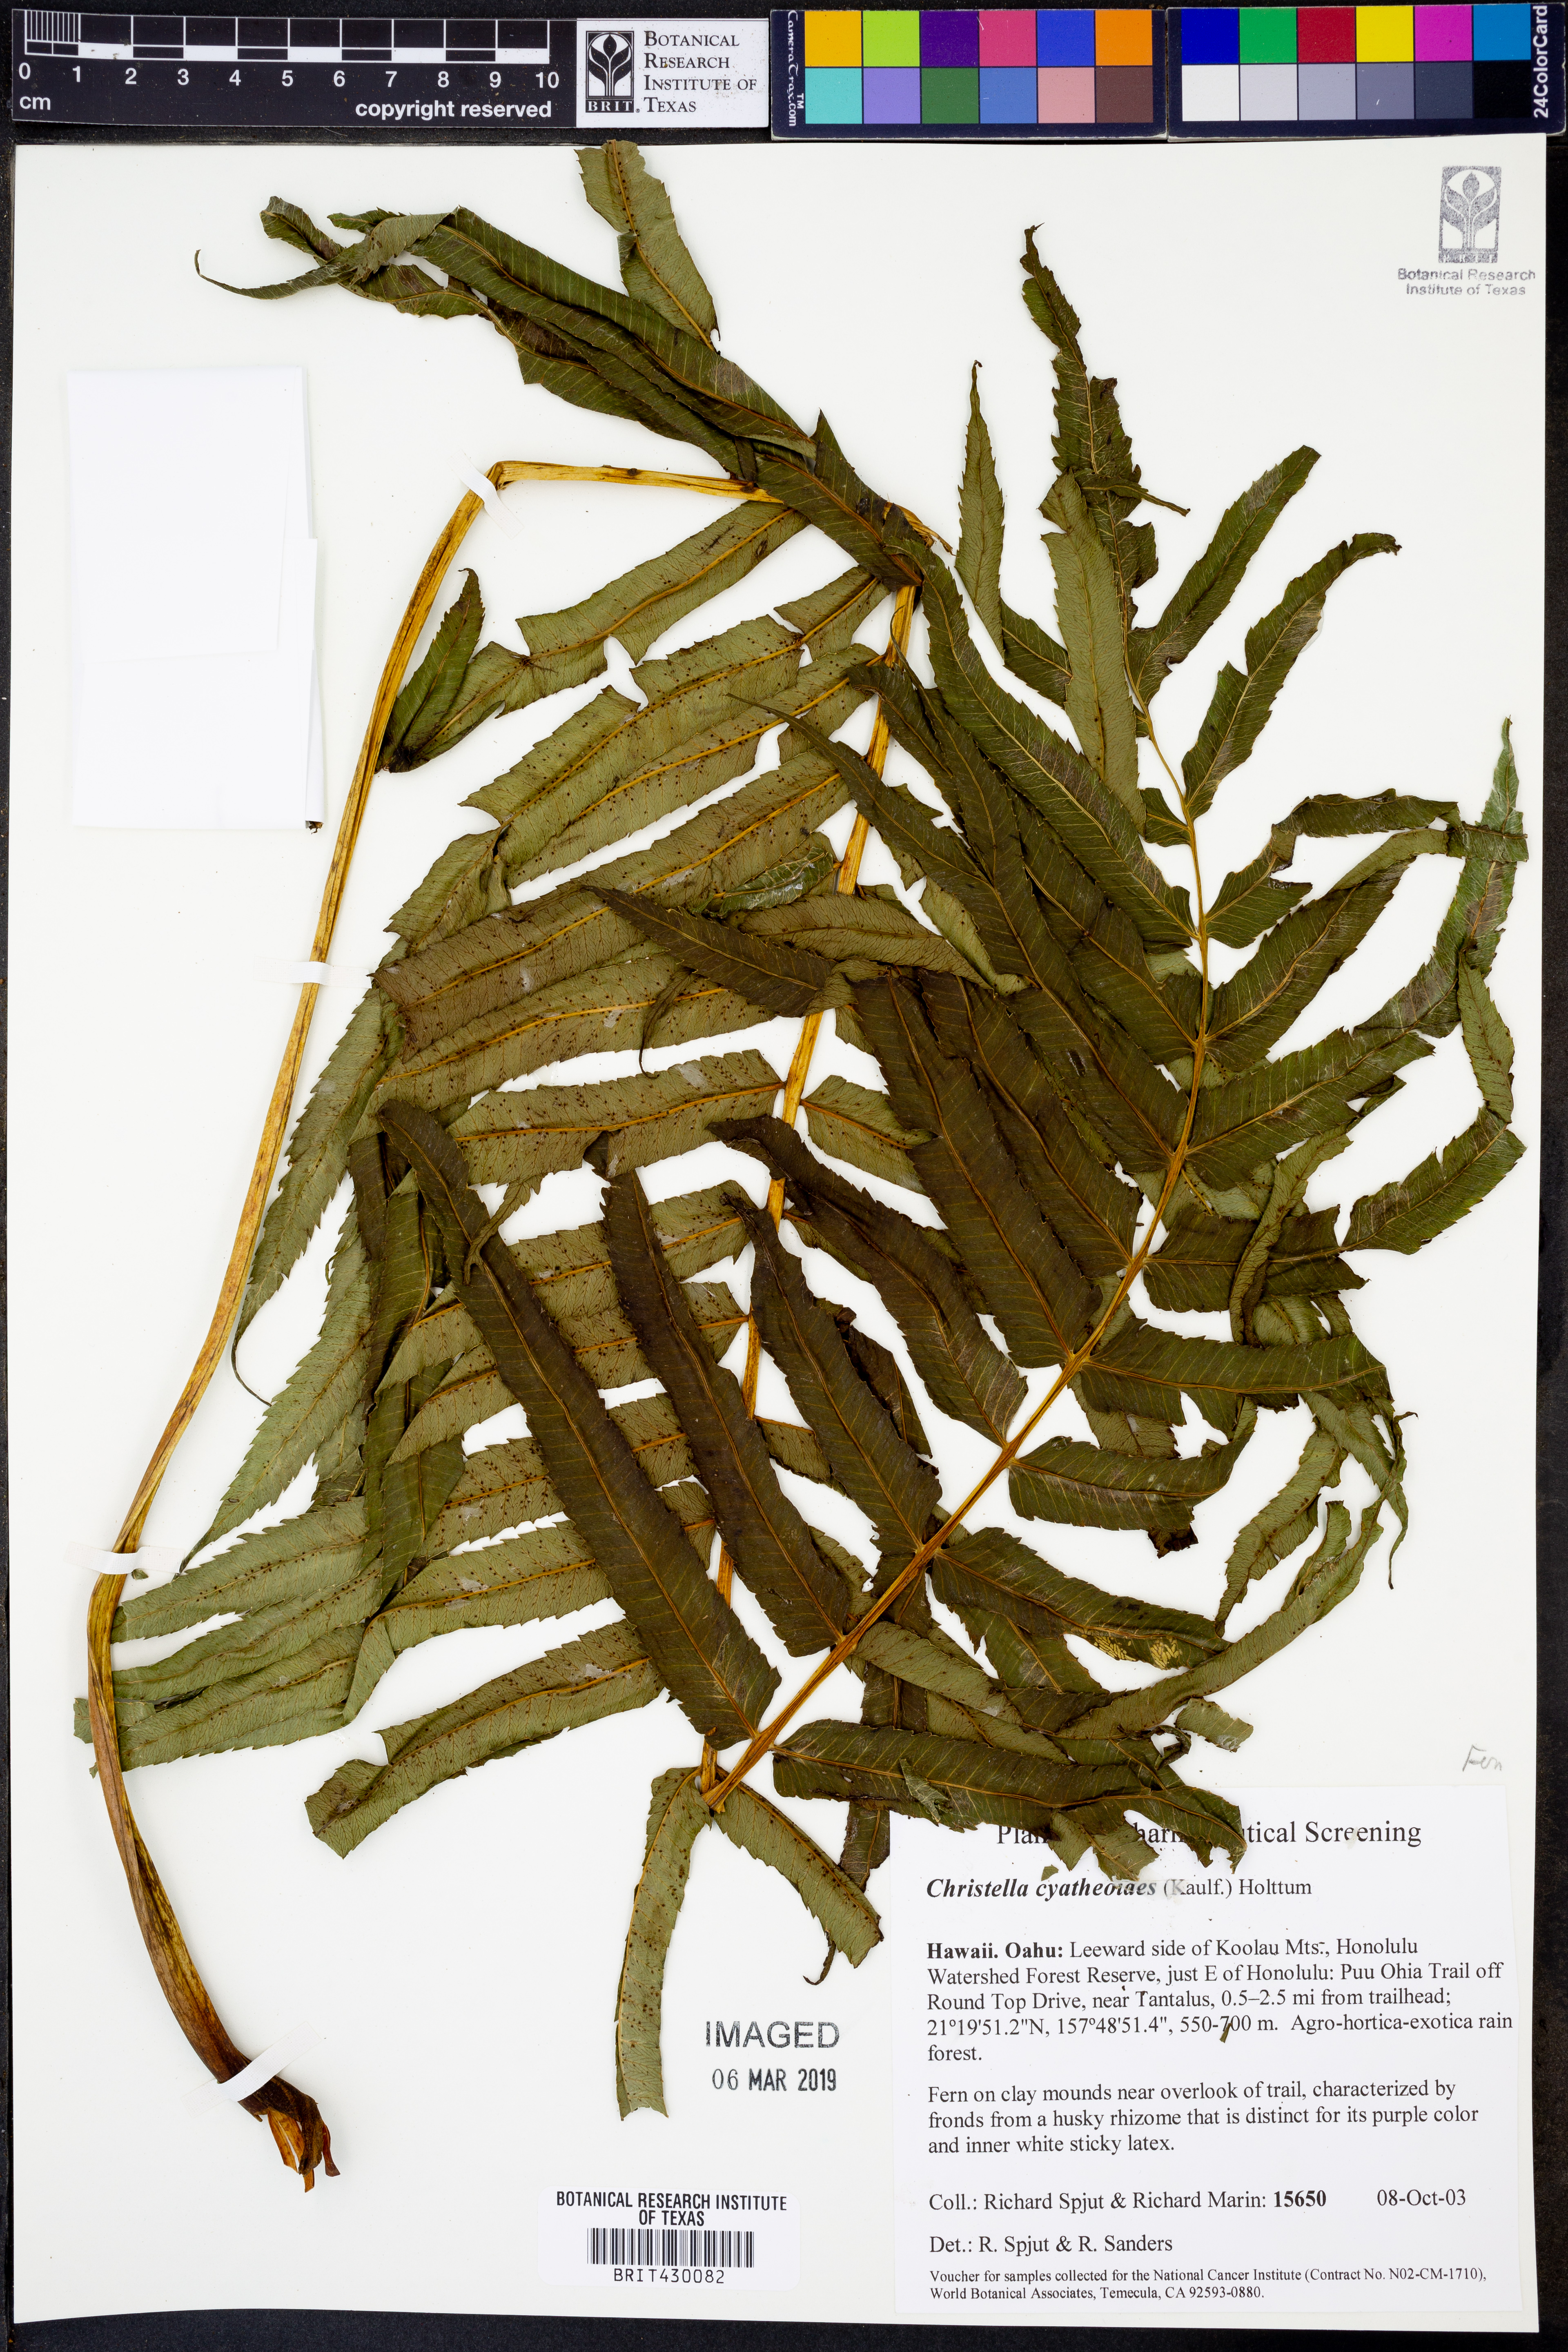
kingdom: Plantae
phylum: Tracheophyta
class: Polypodiopsida
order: Polypodiales
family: Thelypteridaceae
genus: Menisciopsis
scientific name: Menisciopsis cyatheoides
